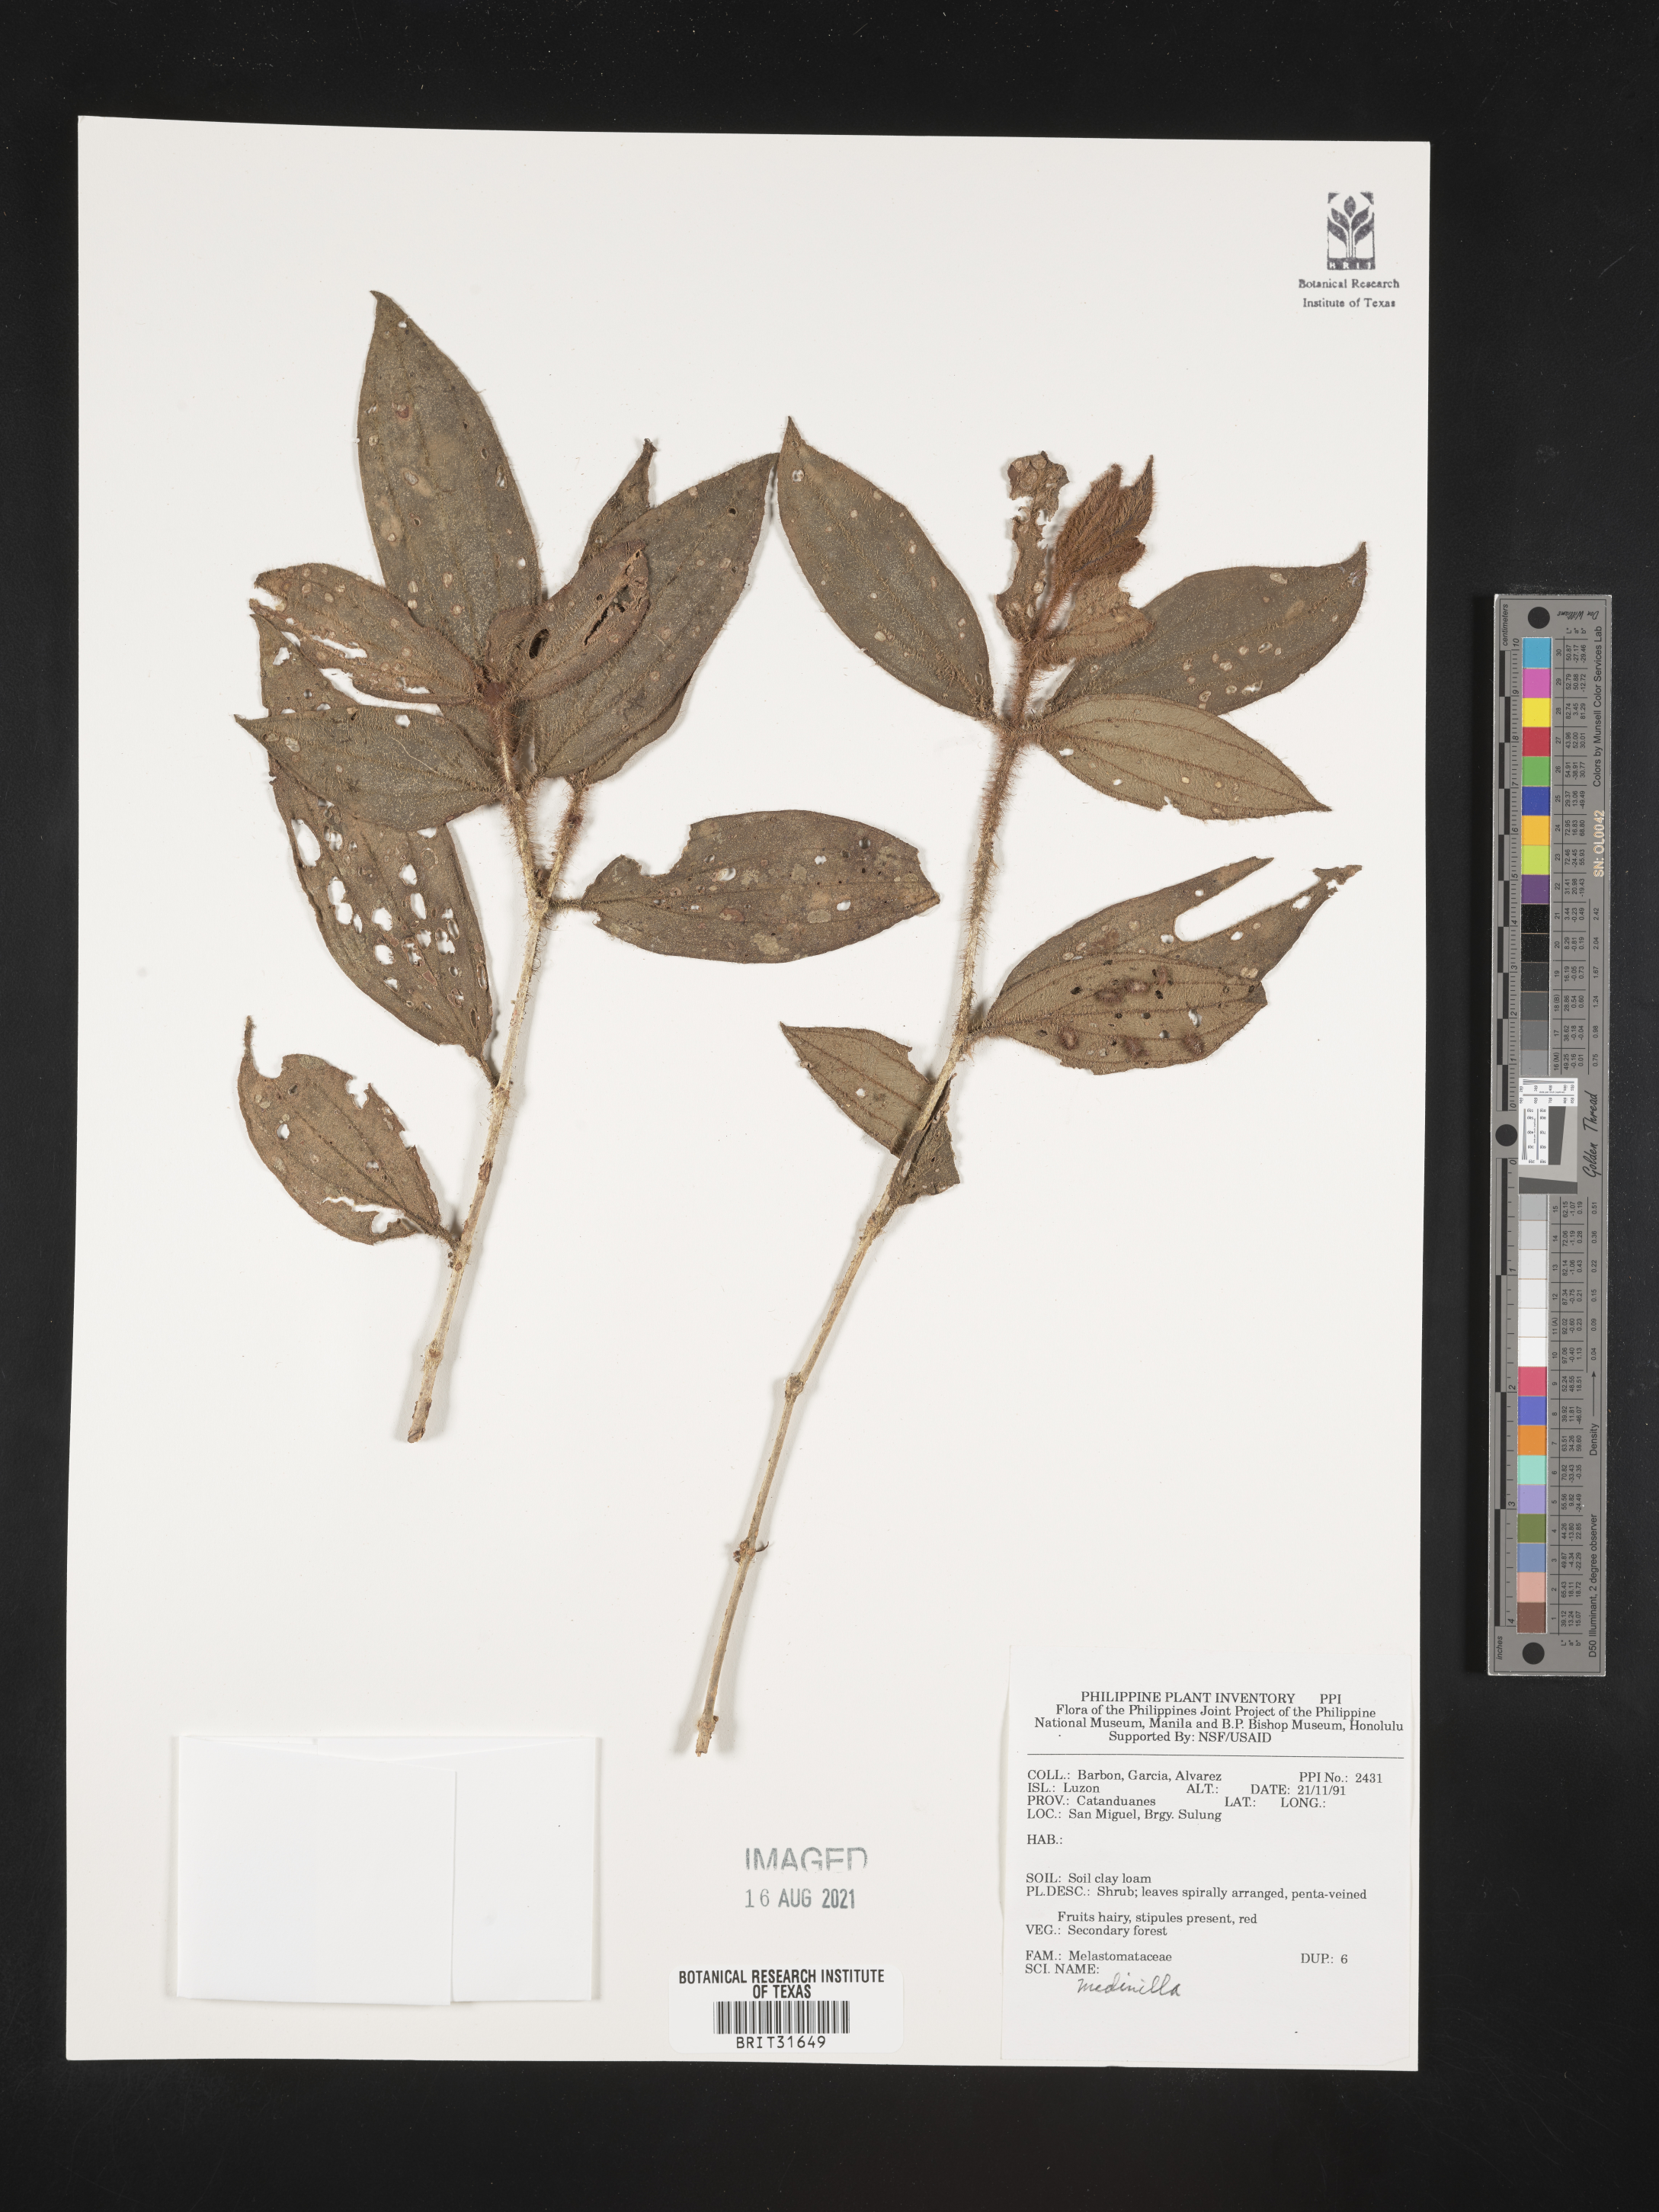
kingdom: Plantae
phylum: Tracheophyta
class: Magnoliopsida
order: Myrtales
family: Melastomataceae
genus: Medinilla
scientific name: Medinilla
